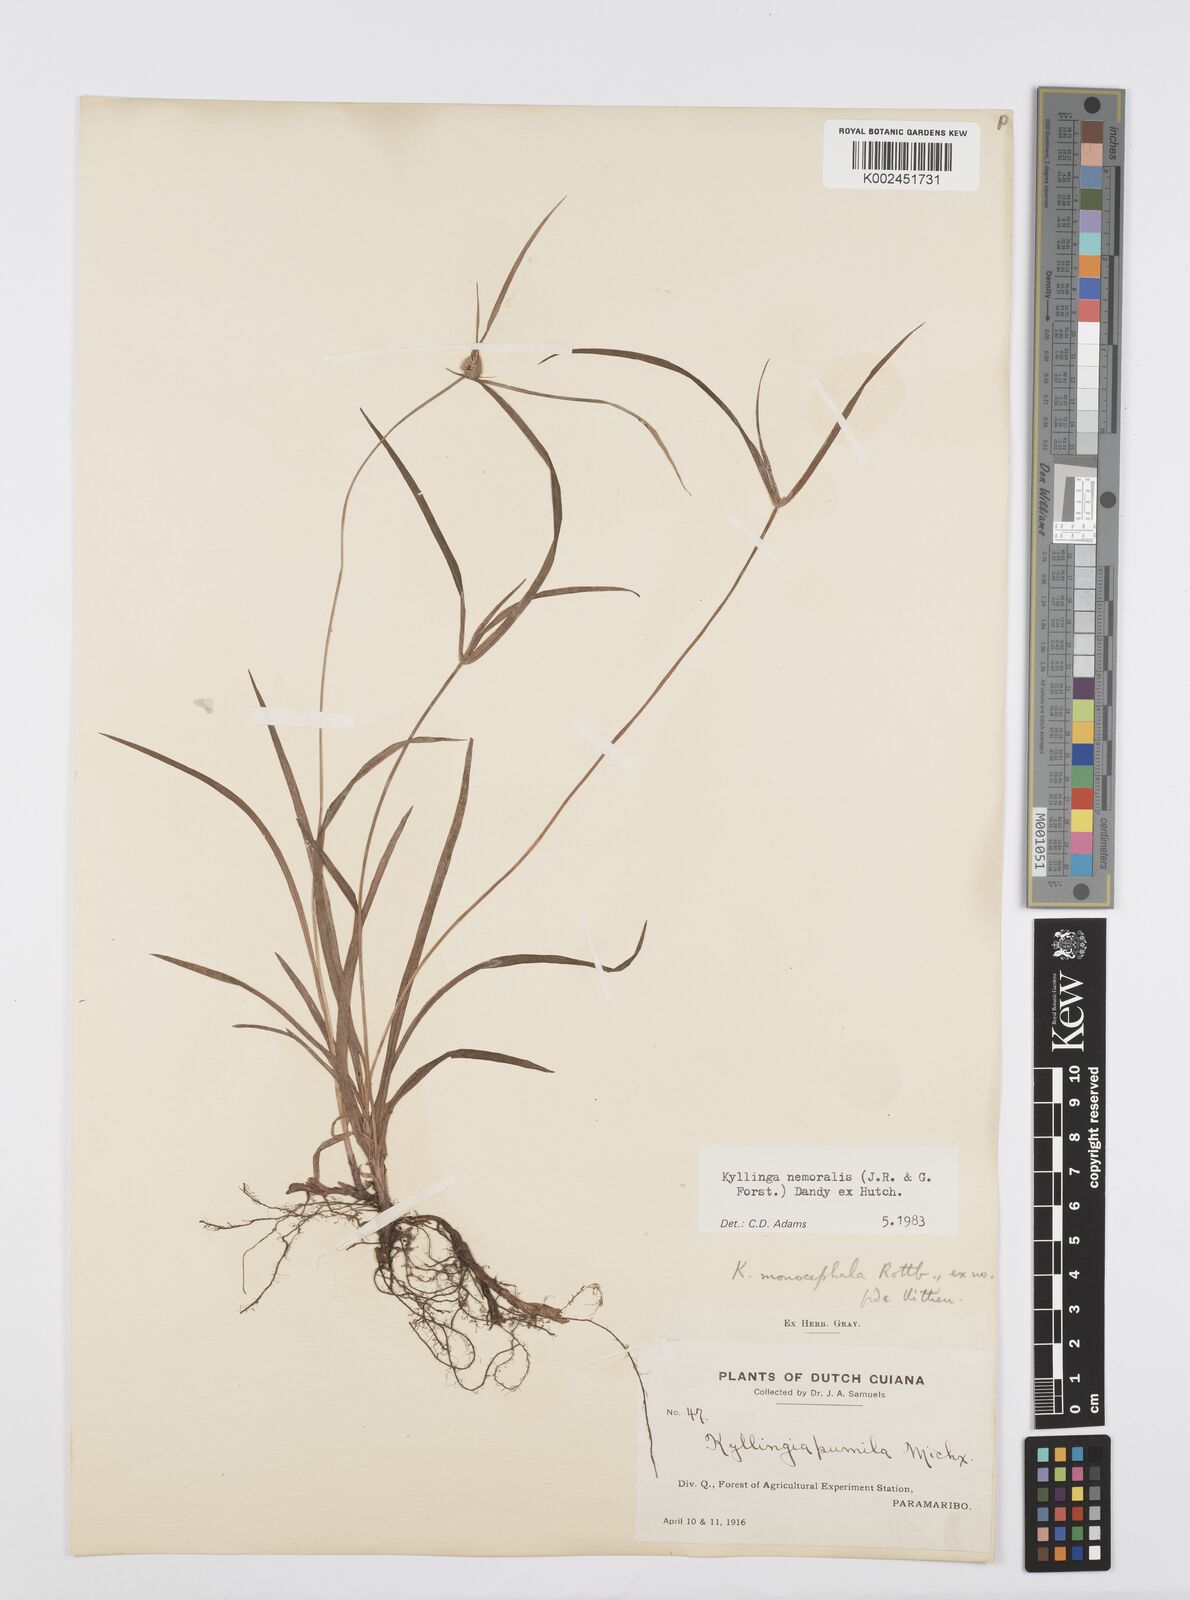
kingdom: Plantae
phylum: Tracheophyta
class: Liliopsida
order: Poales
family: Cyperaceae
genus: Cyperus
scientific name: Cyperus nemoralis
